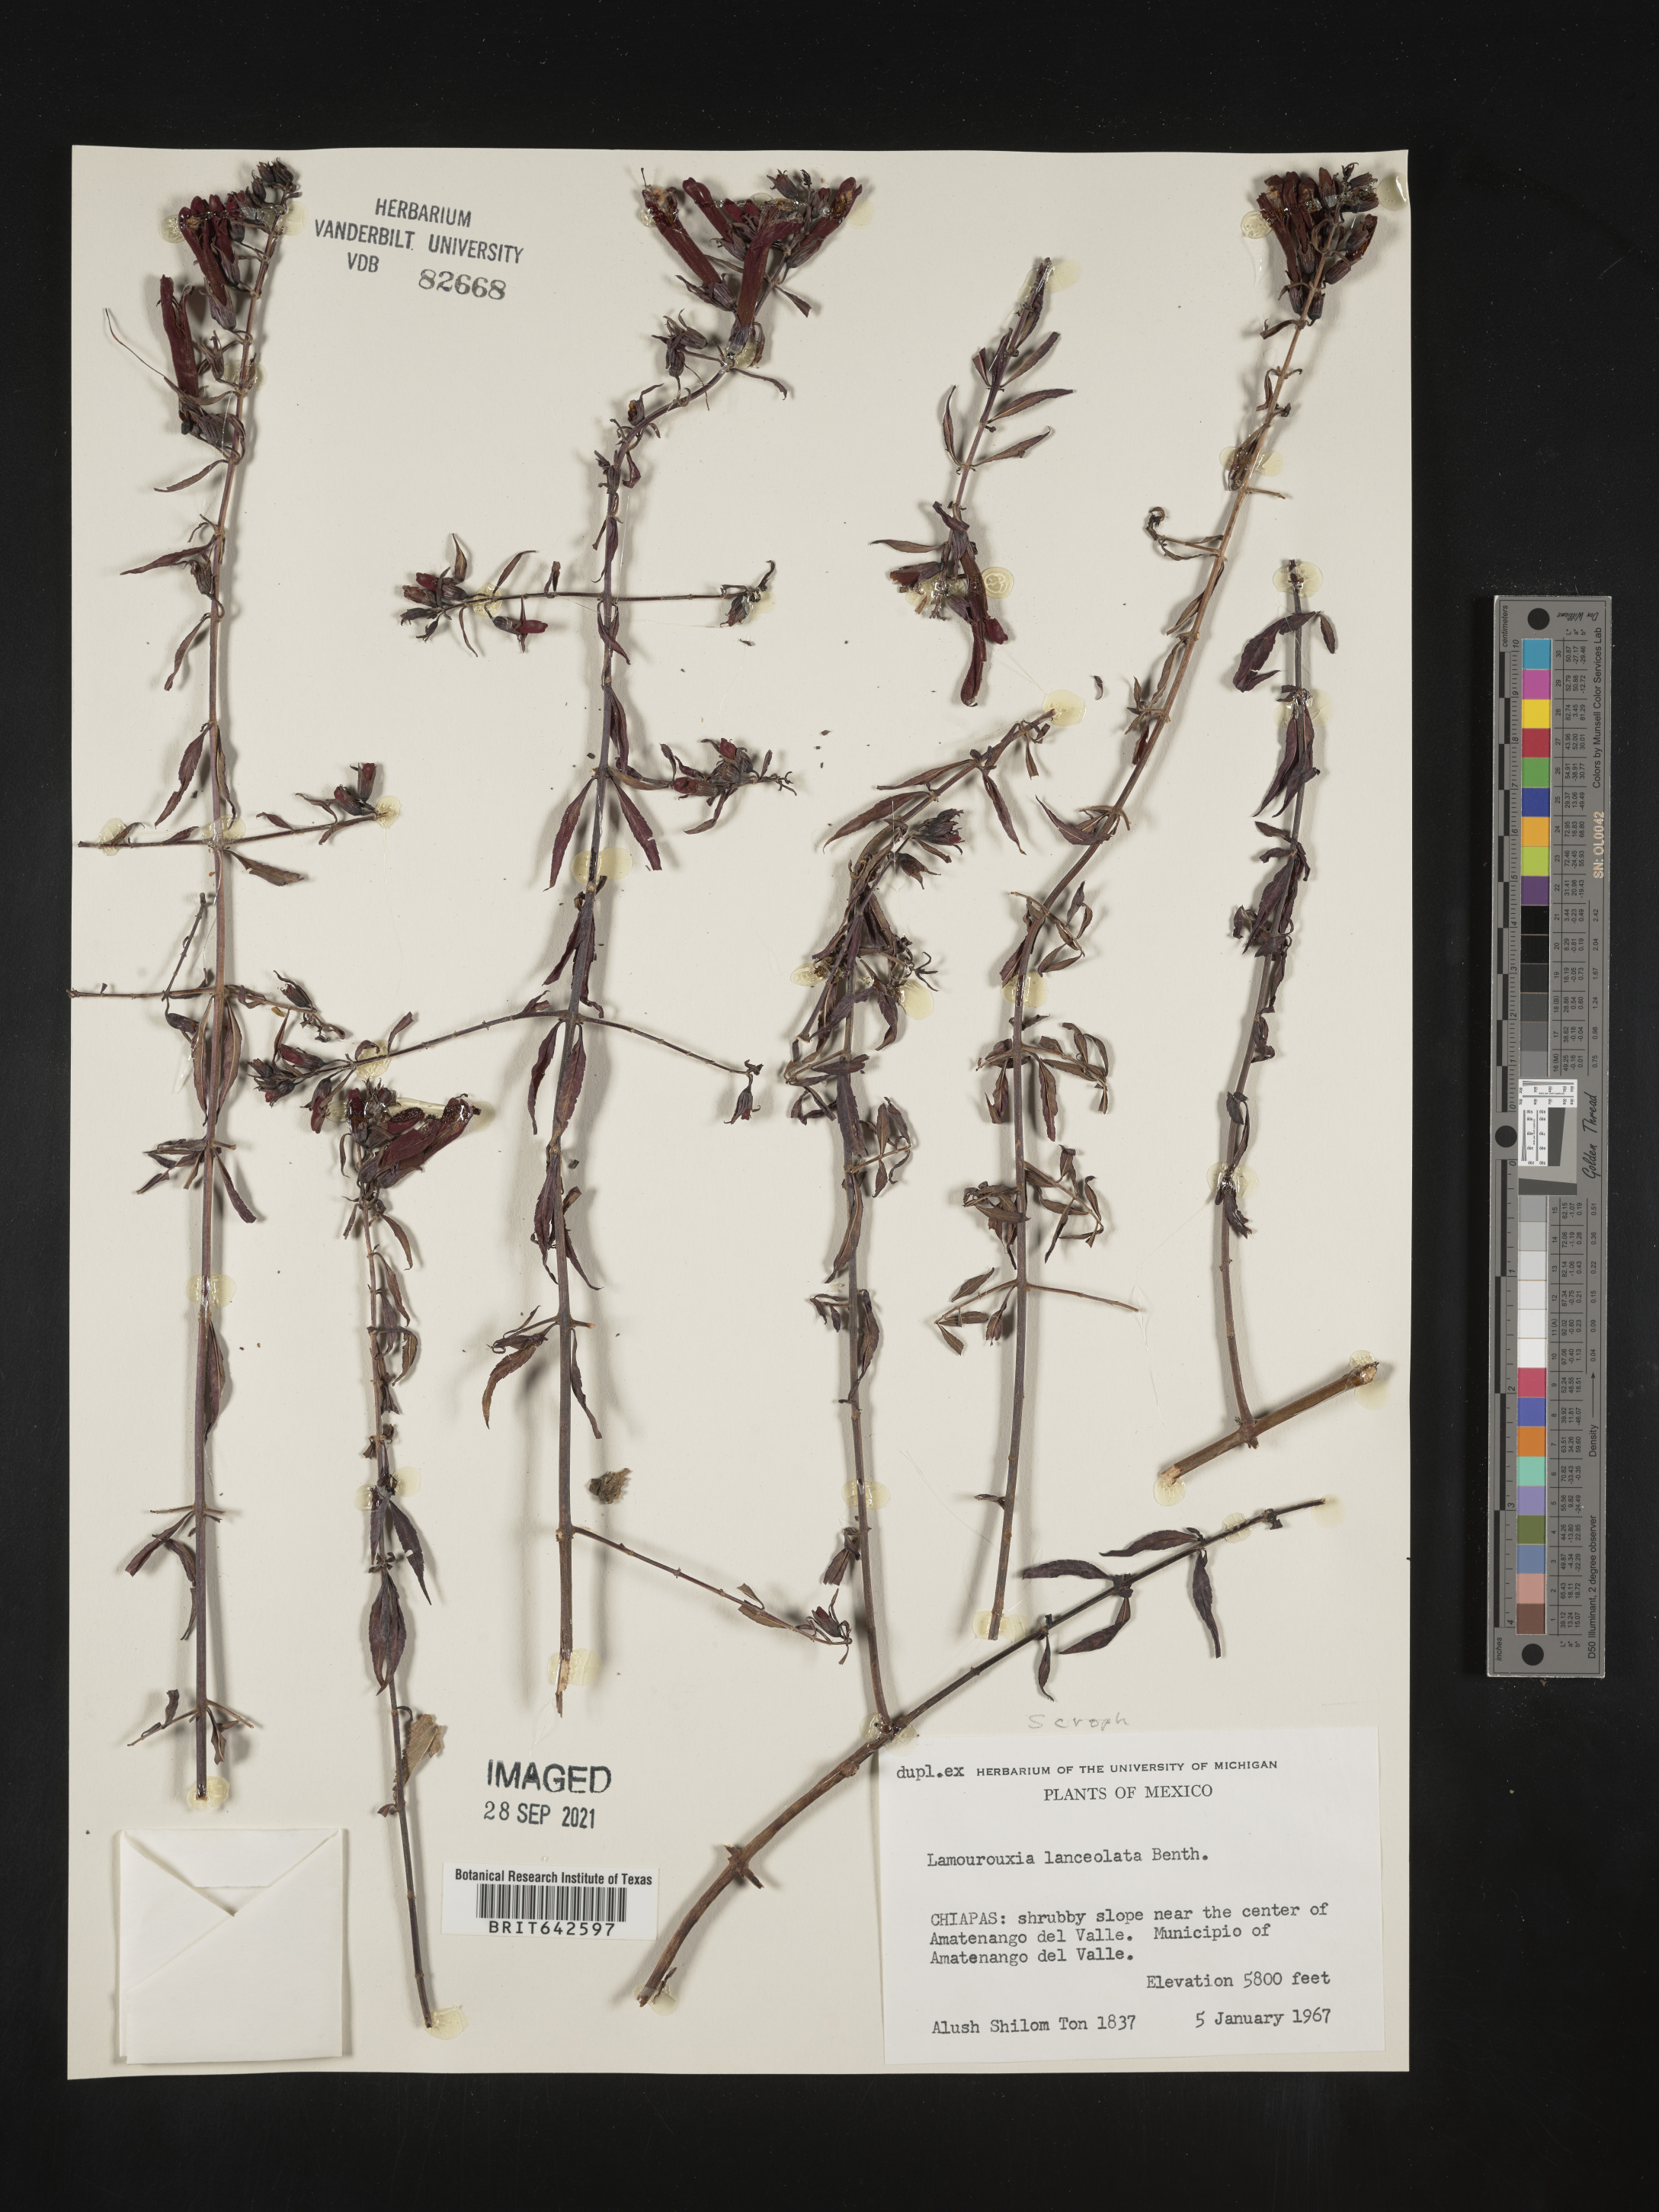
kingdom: Plantae
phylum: Tracheophyta
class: Magnoliopsida
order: Lamiales
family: Orobanchaceae
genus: Lamourouxia
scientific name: Lamourouxia
